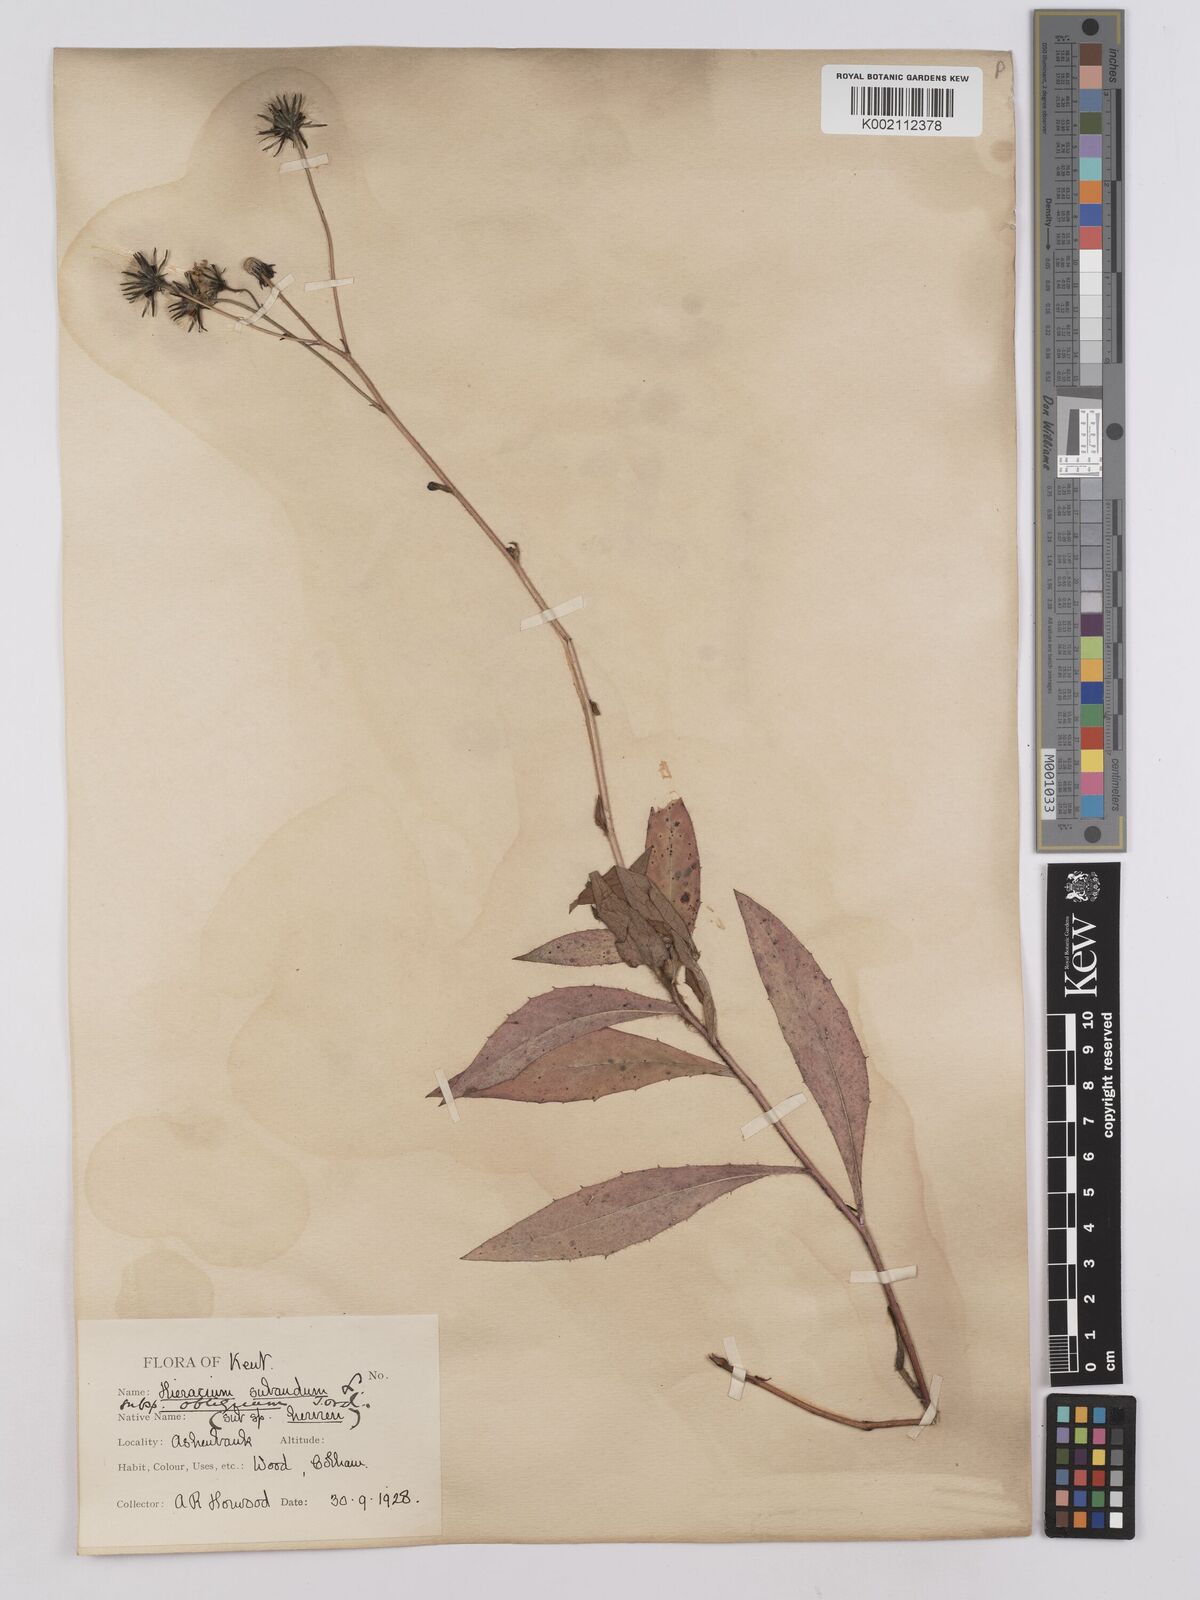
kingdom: Plantae
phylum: Tracheophyta
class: Magnoliopsida
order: Asterales
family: Asteraceae
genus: Hieracium
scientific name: Hieracium sabaudum
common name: New england hawkweed
